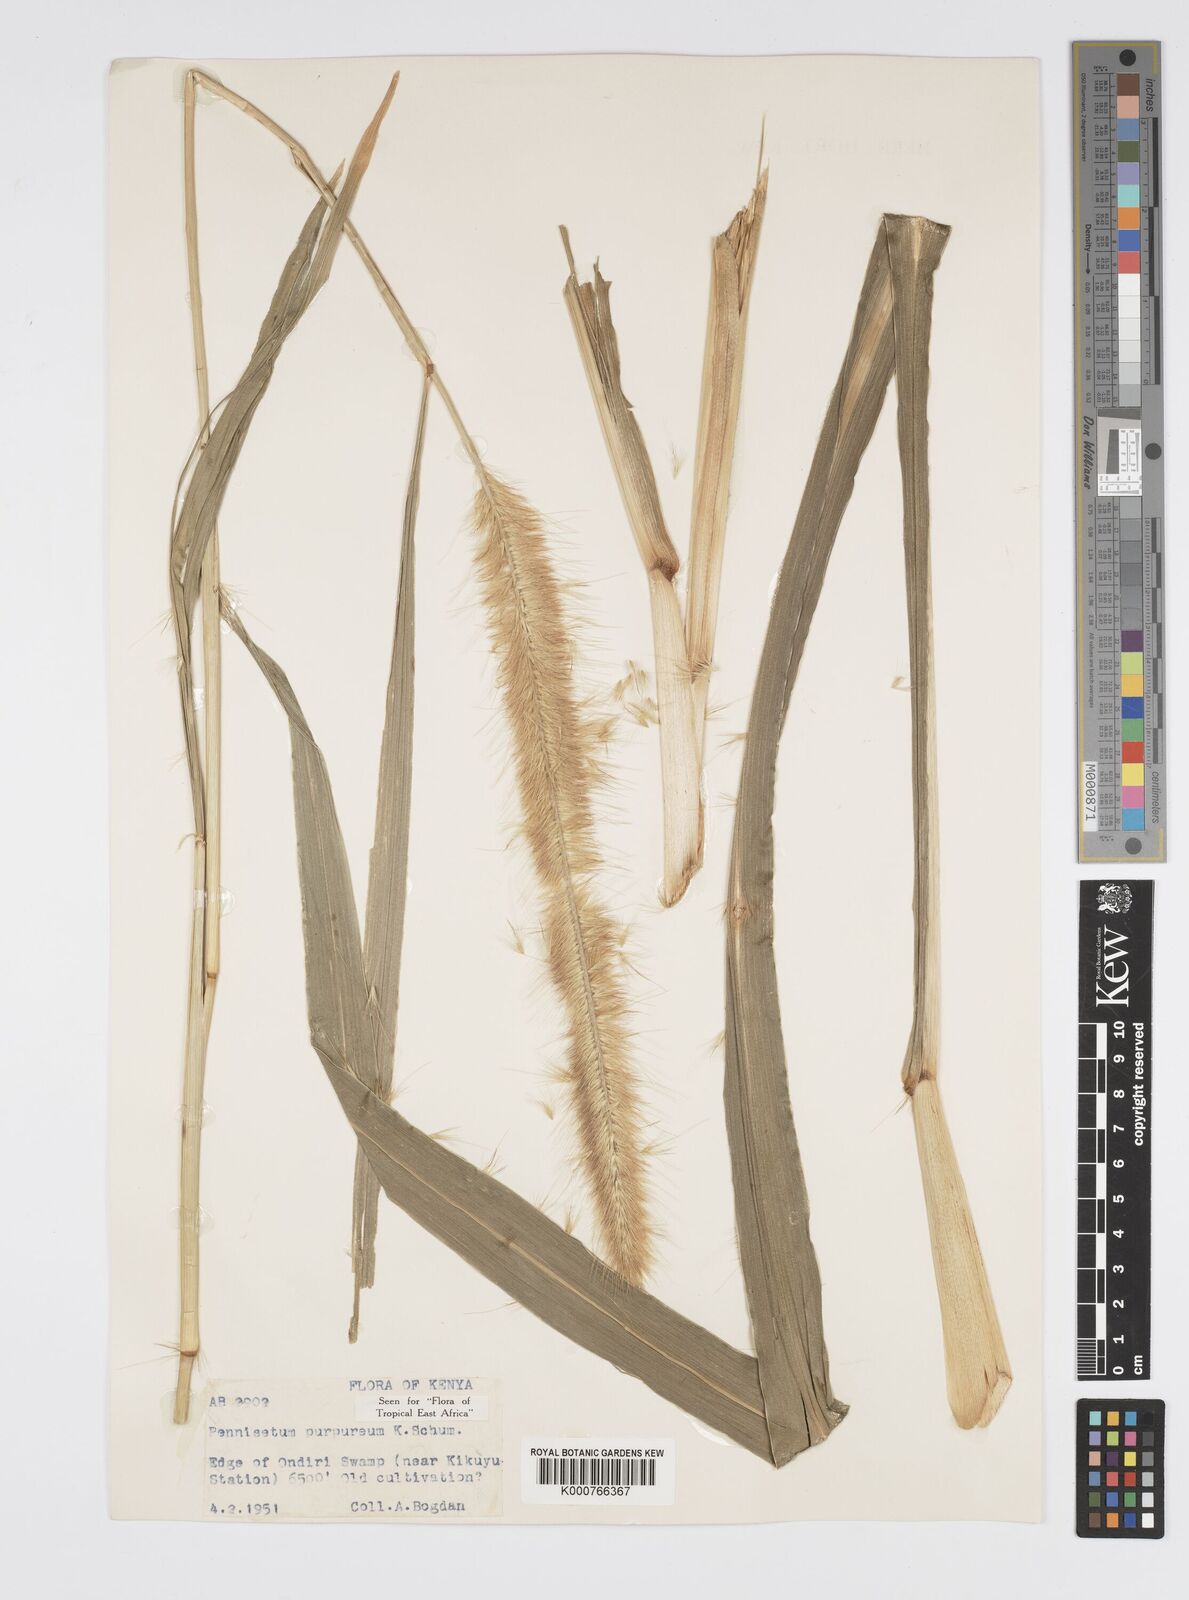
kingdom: Plantae
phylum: Tracheophyta
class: Liliopsida
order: Poales
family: Poaceae
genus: Cenchrus
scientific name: Cenchrus purpureus
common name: Elephant grass
